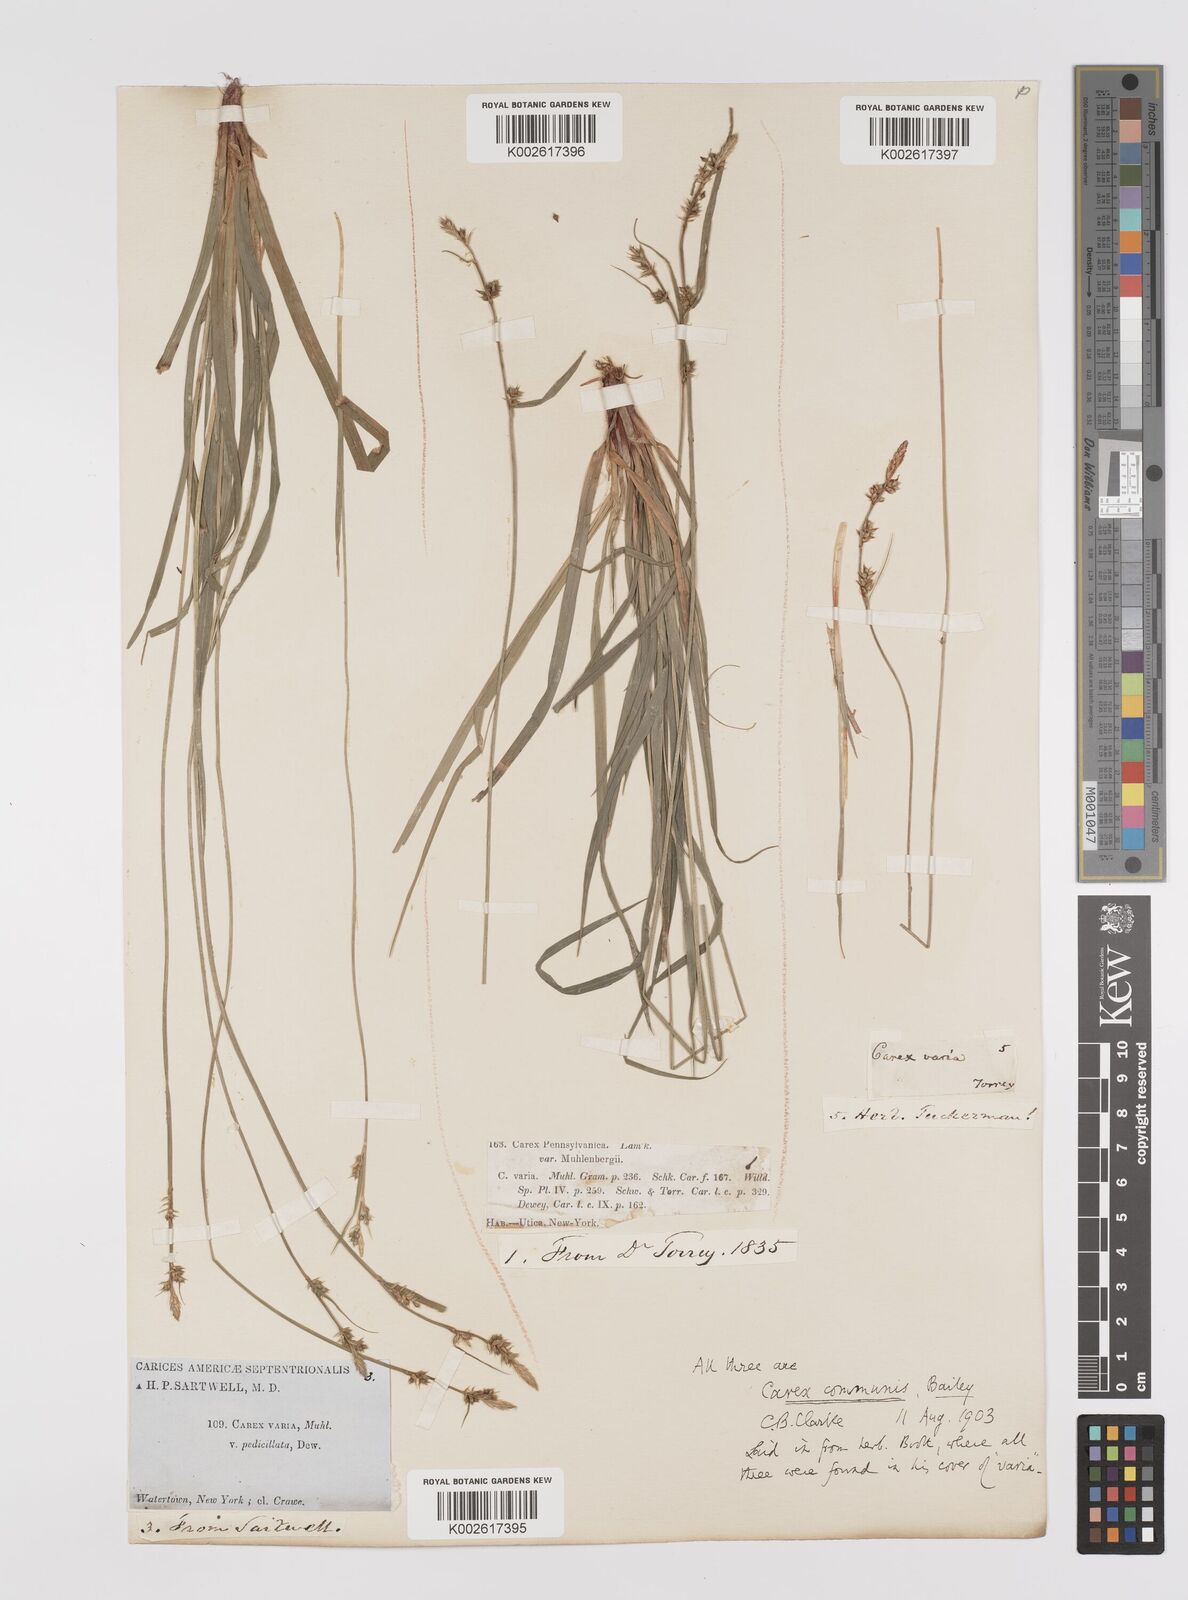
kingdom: Plantae
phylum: Tracheophyta
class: Liliopsida
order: Poales
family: Cyperaceae
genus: Carex
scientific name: Carex communis
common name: Colonial oak sedge
